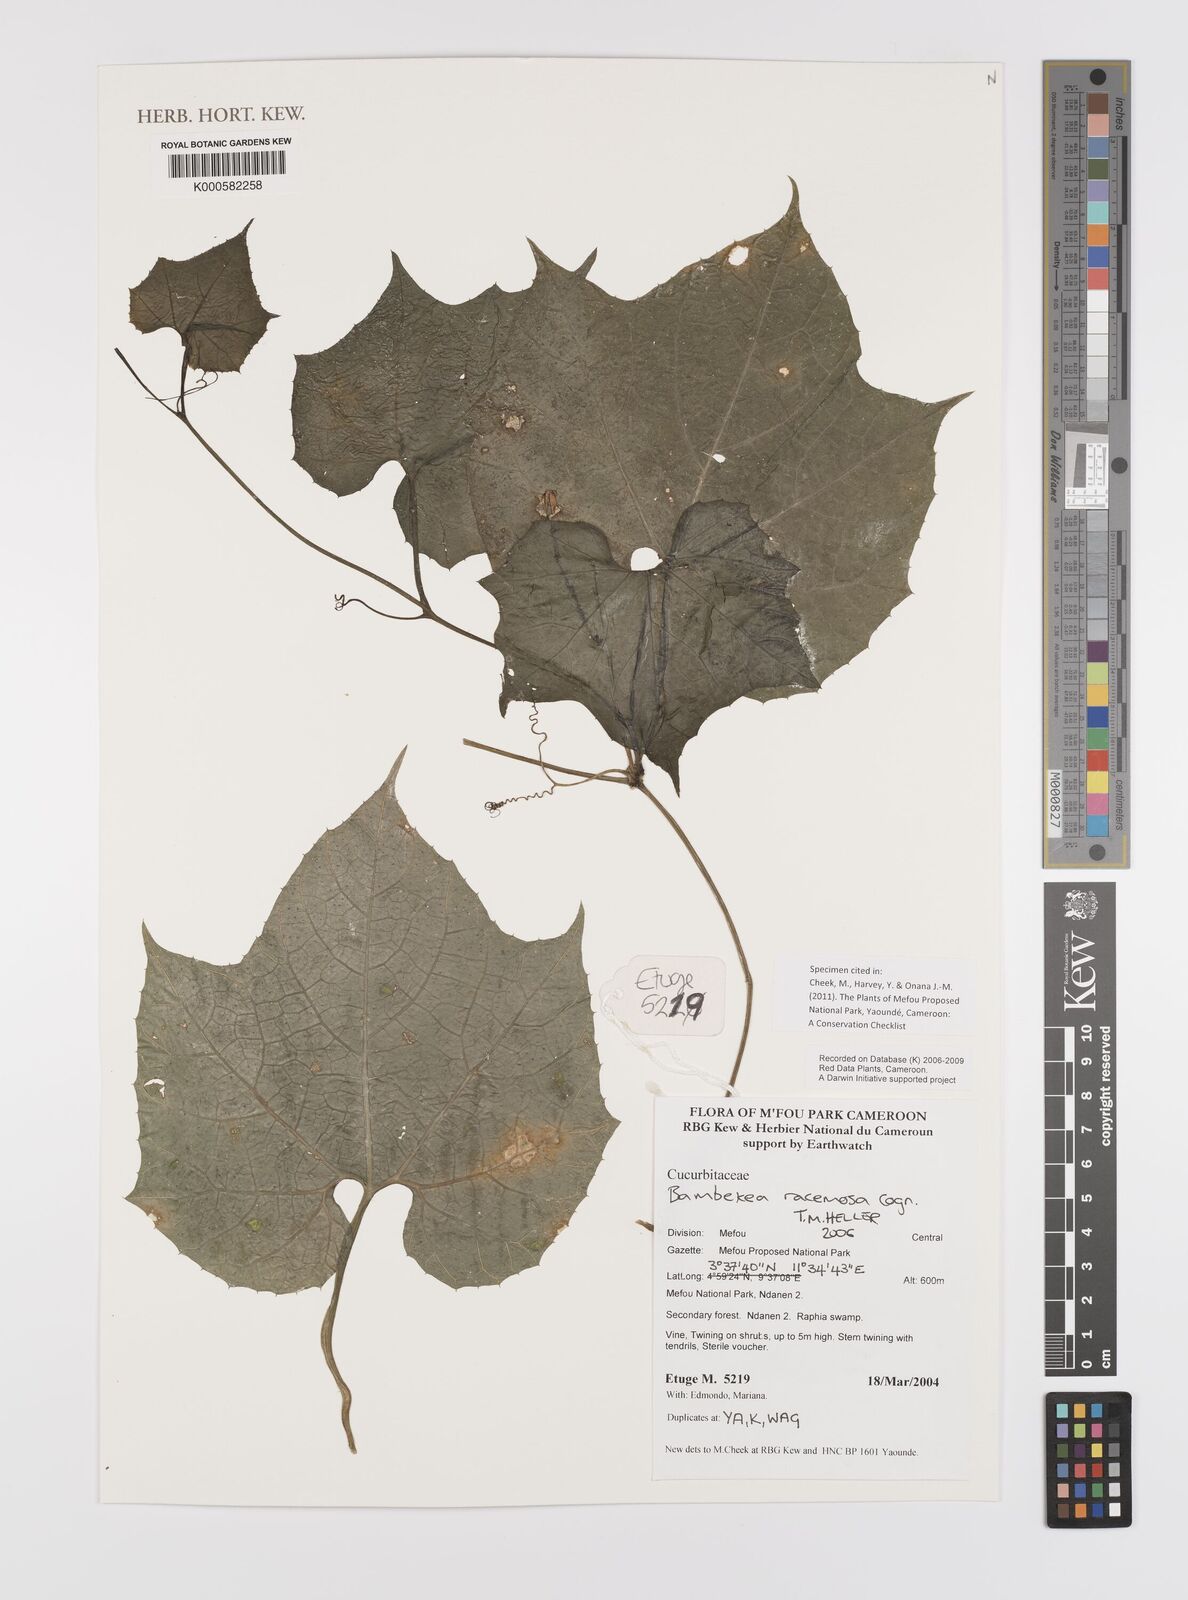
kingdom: Plantae
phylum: Tracheophyta
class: Magnoliopsida
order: Cucurbitales
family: Cucurbitaceae
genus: Bambekea
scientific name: Bambekea racemosa
